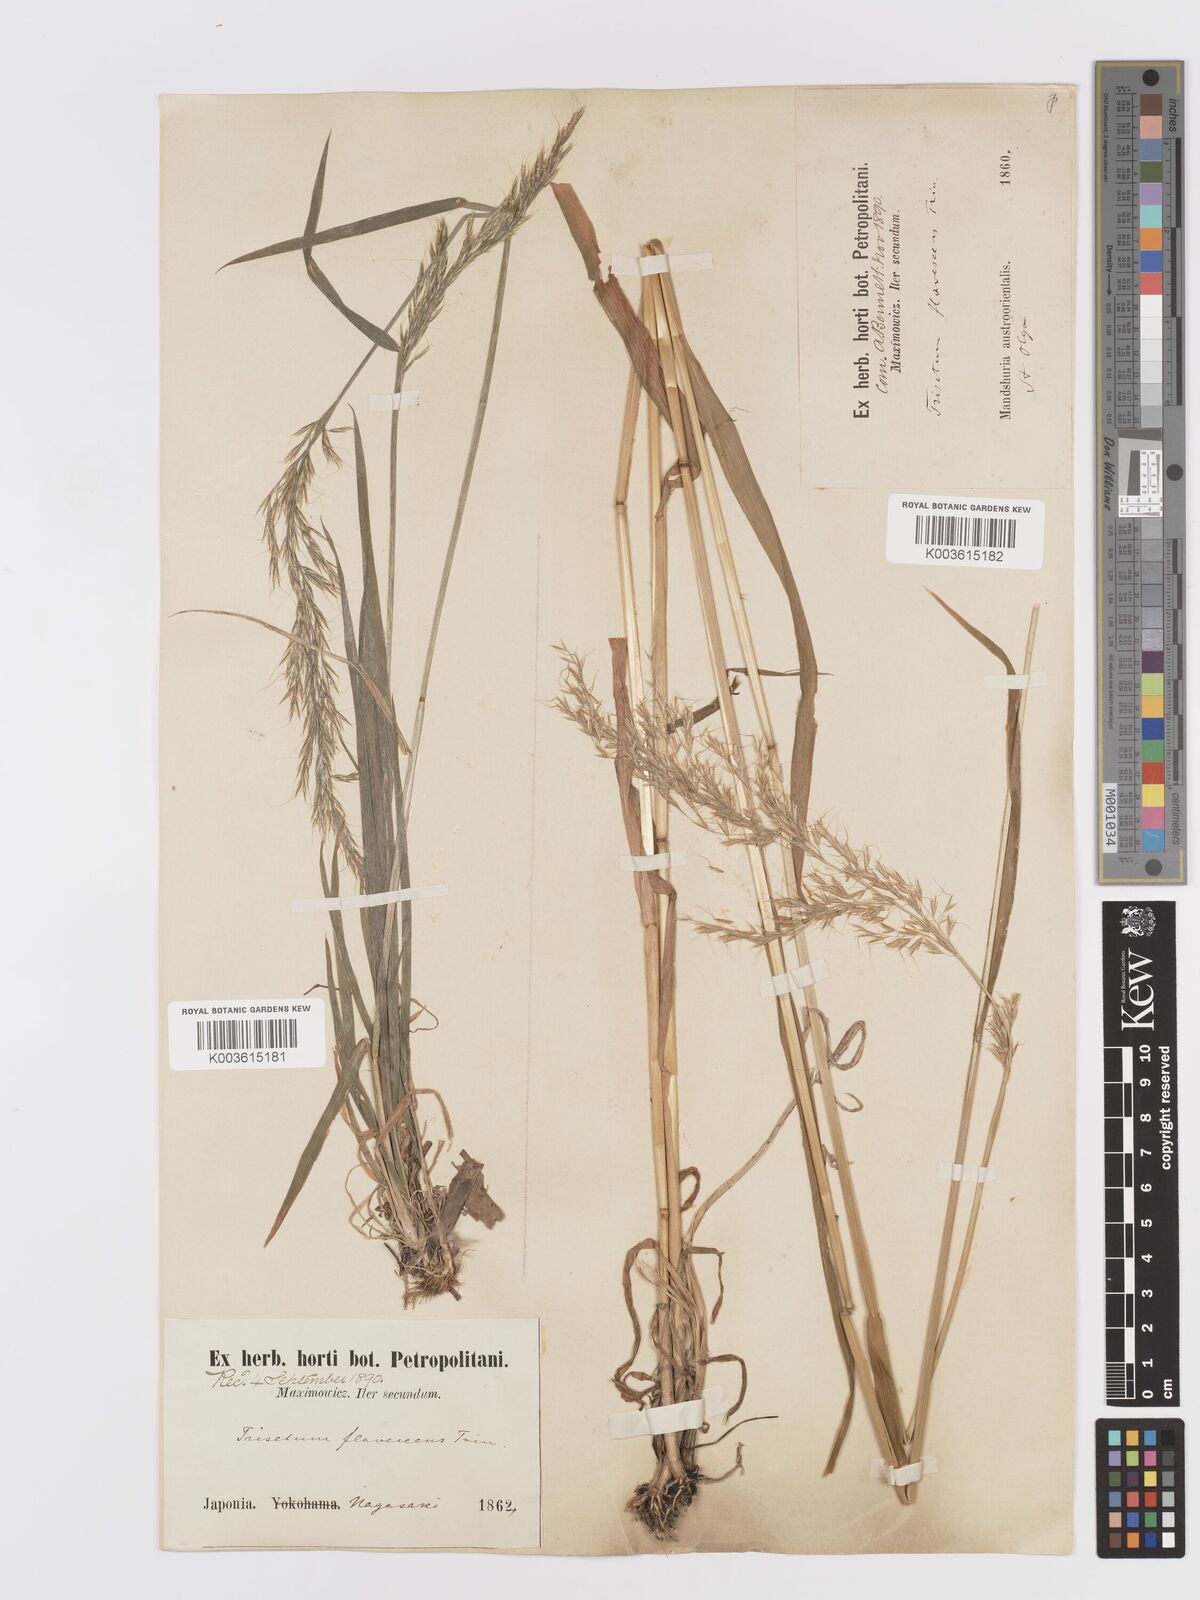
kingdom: Plantae
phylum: Tracheophyta
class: Liliopsida
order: Poales
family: Poaceae
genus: Sibirotrisetum
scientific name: Sibirotrisetum bifidum
